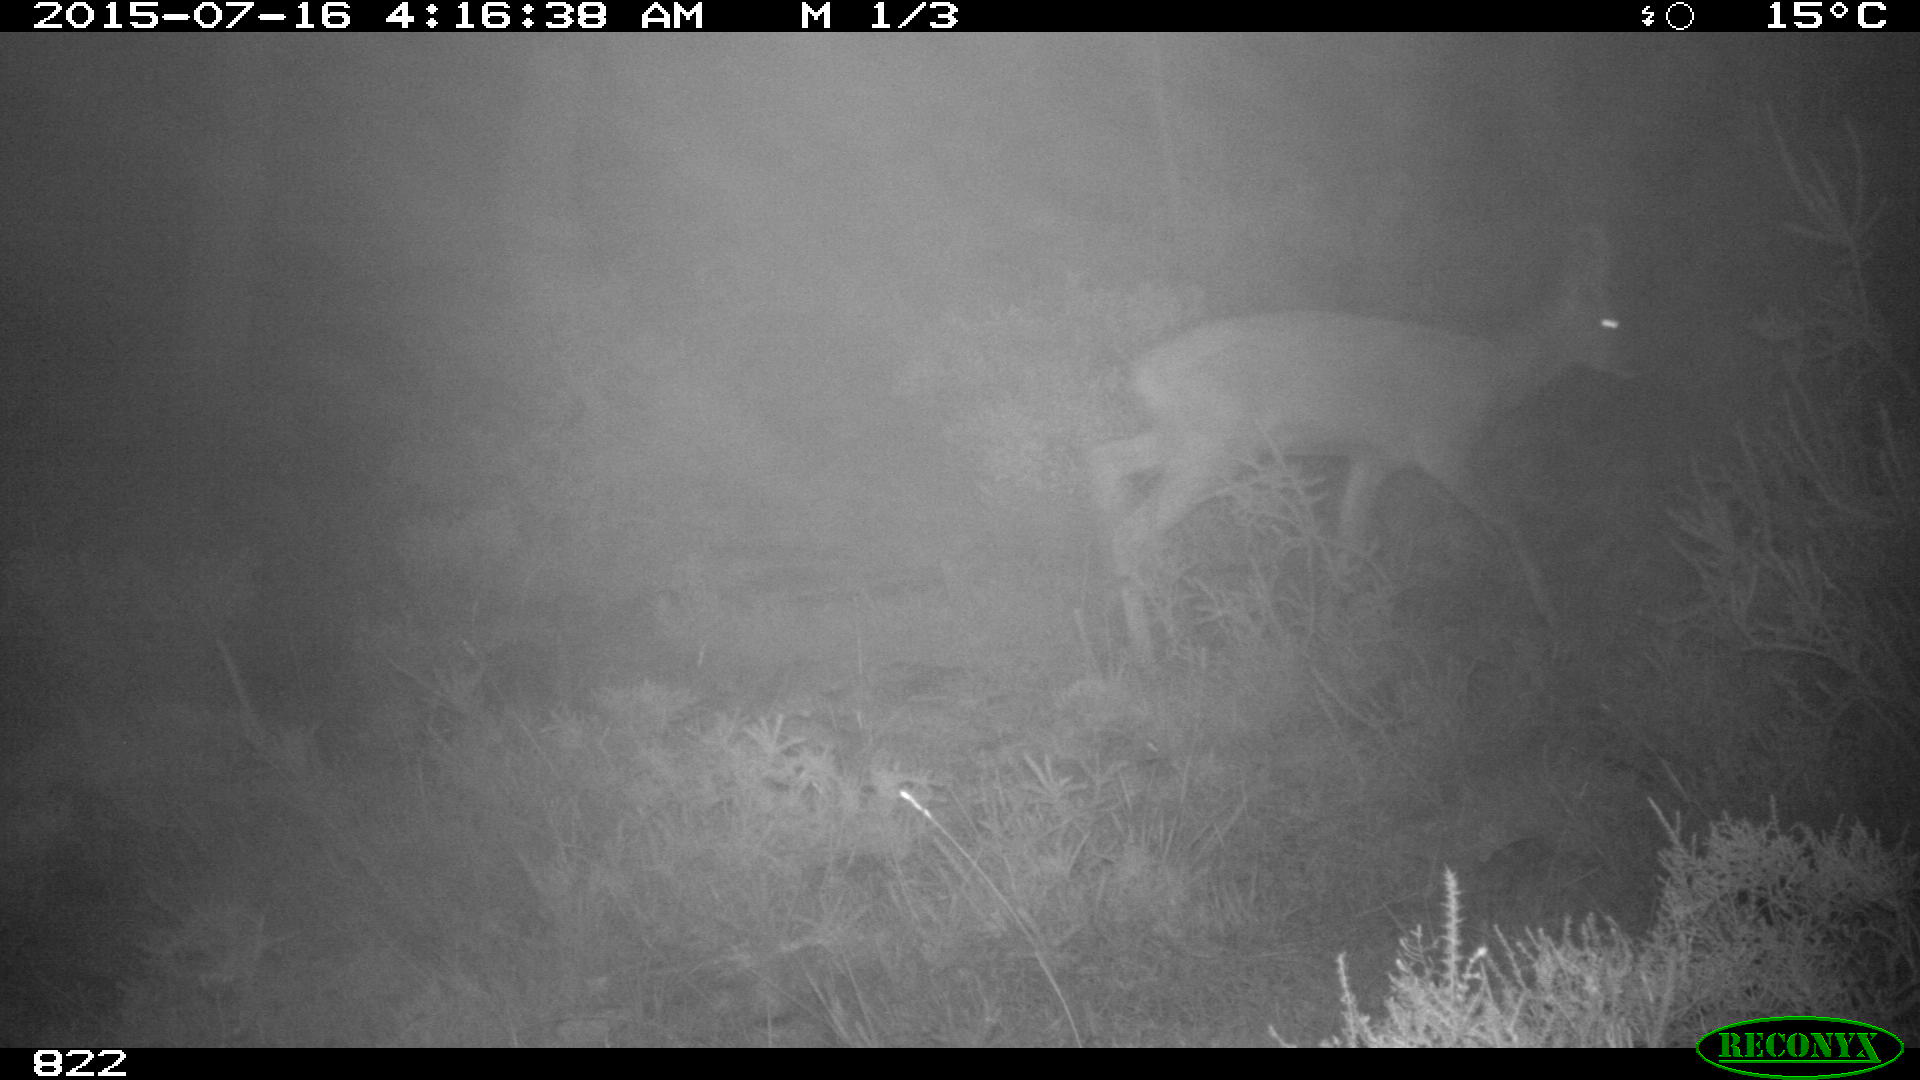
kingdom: Animalia
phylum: Chordata
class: Mammalia
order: Artiodactyla
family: Cervidae
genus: Capreolus
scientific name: Capreolus capreolus
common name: Western roe deer
